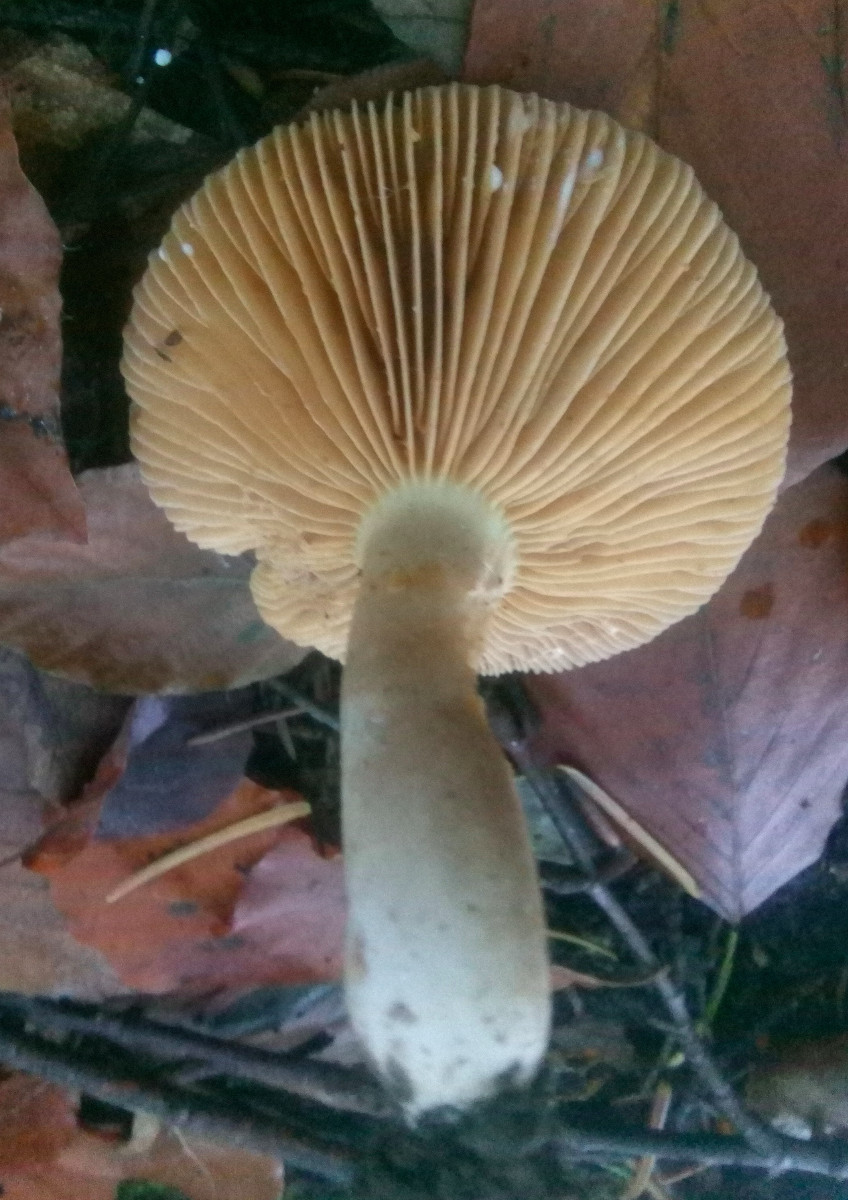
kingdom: Fungi
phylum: Basidiomycota
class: Agaricomycetes
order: Russulales
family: Russulaceae
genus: Lactarius
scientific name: Lactarius pterosporus
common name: vingesporet mælkehat
